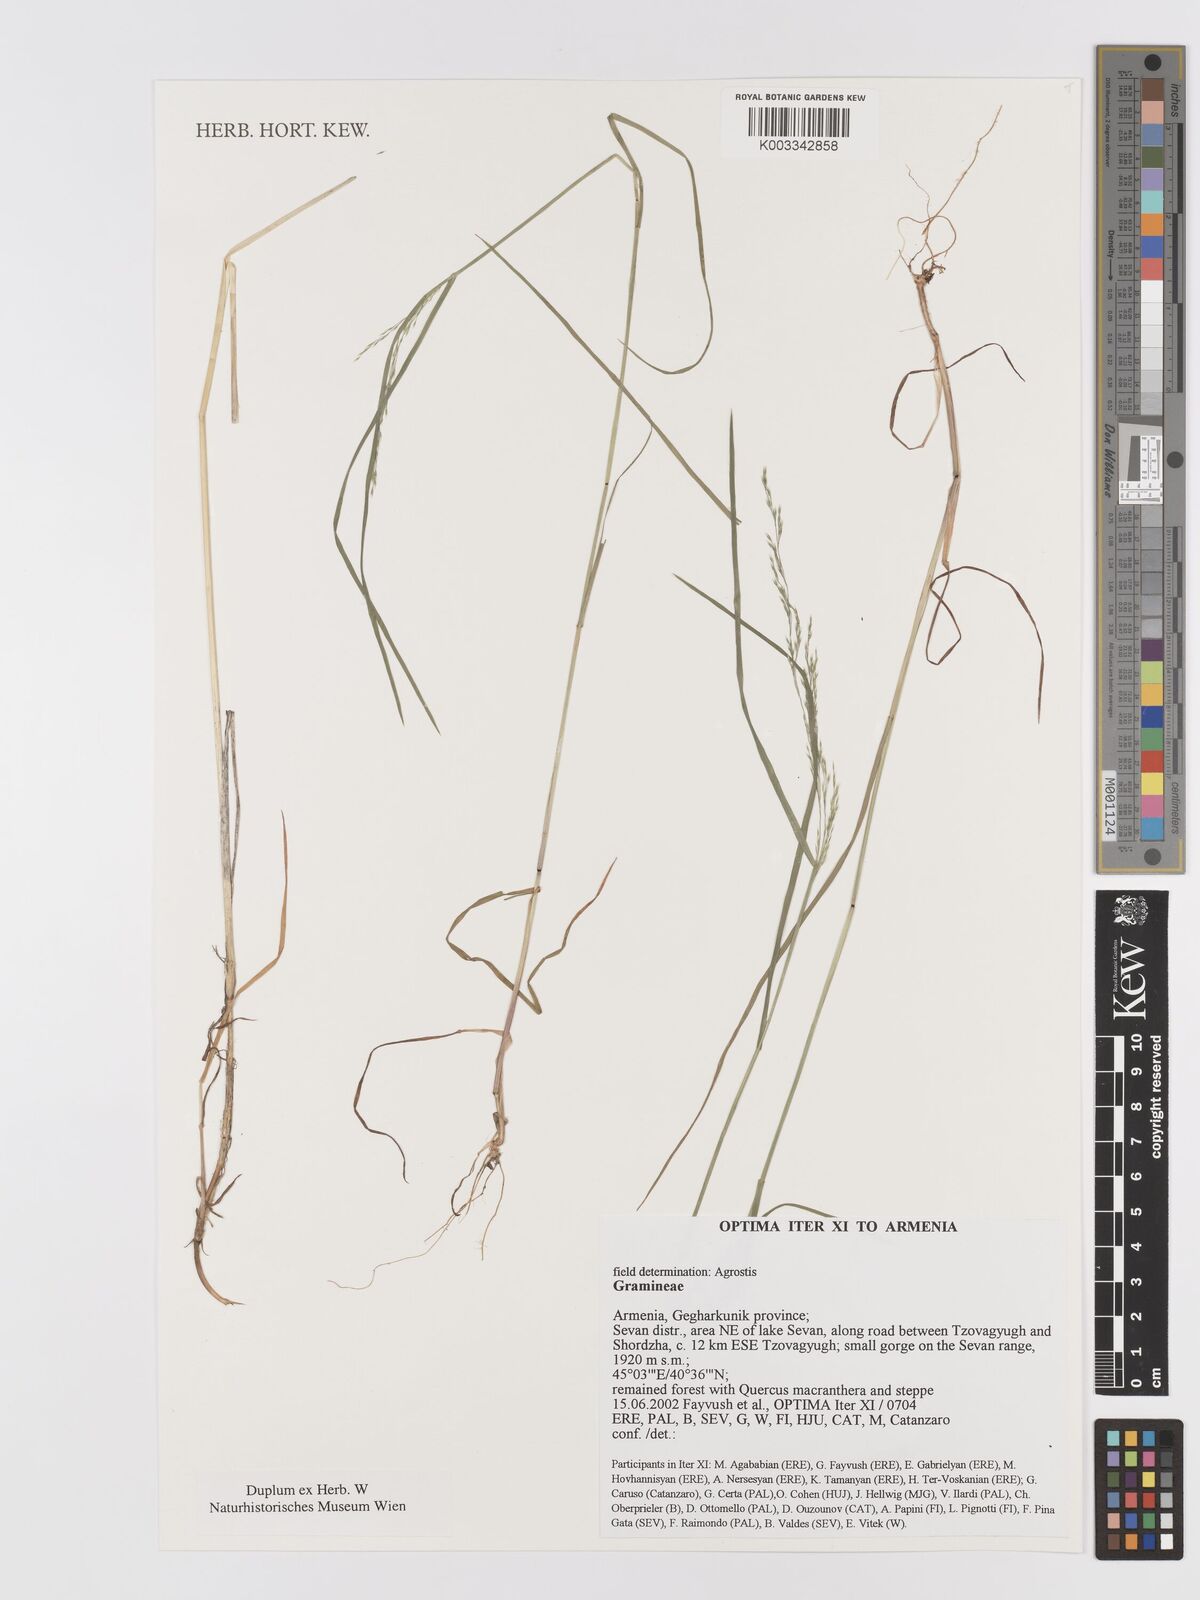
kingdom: Plantae
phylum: Tracheophyta
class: Liliopsida
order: Poales
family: Poaceae
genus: Agrostis
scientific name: Agrostis
